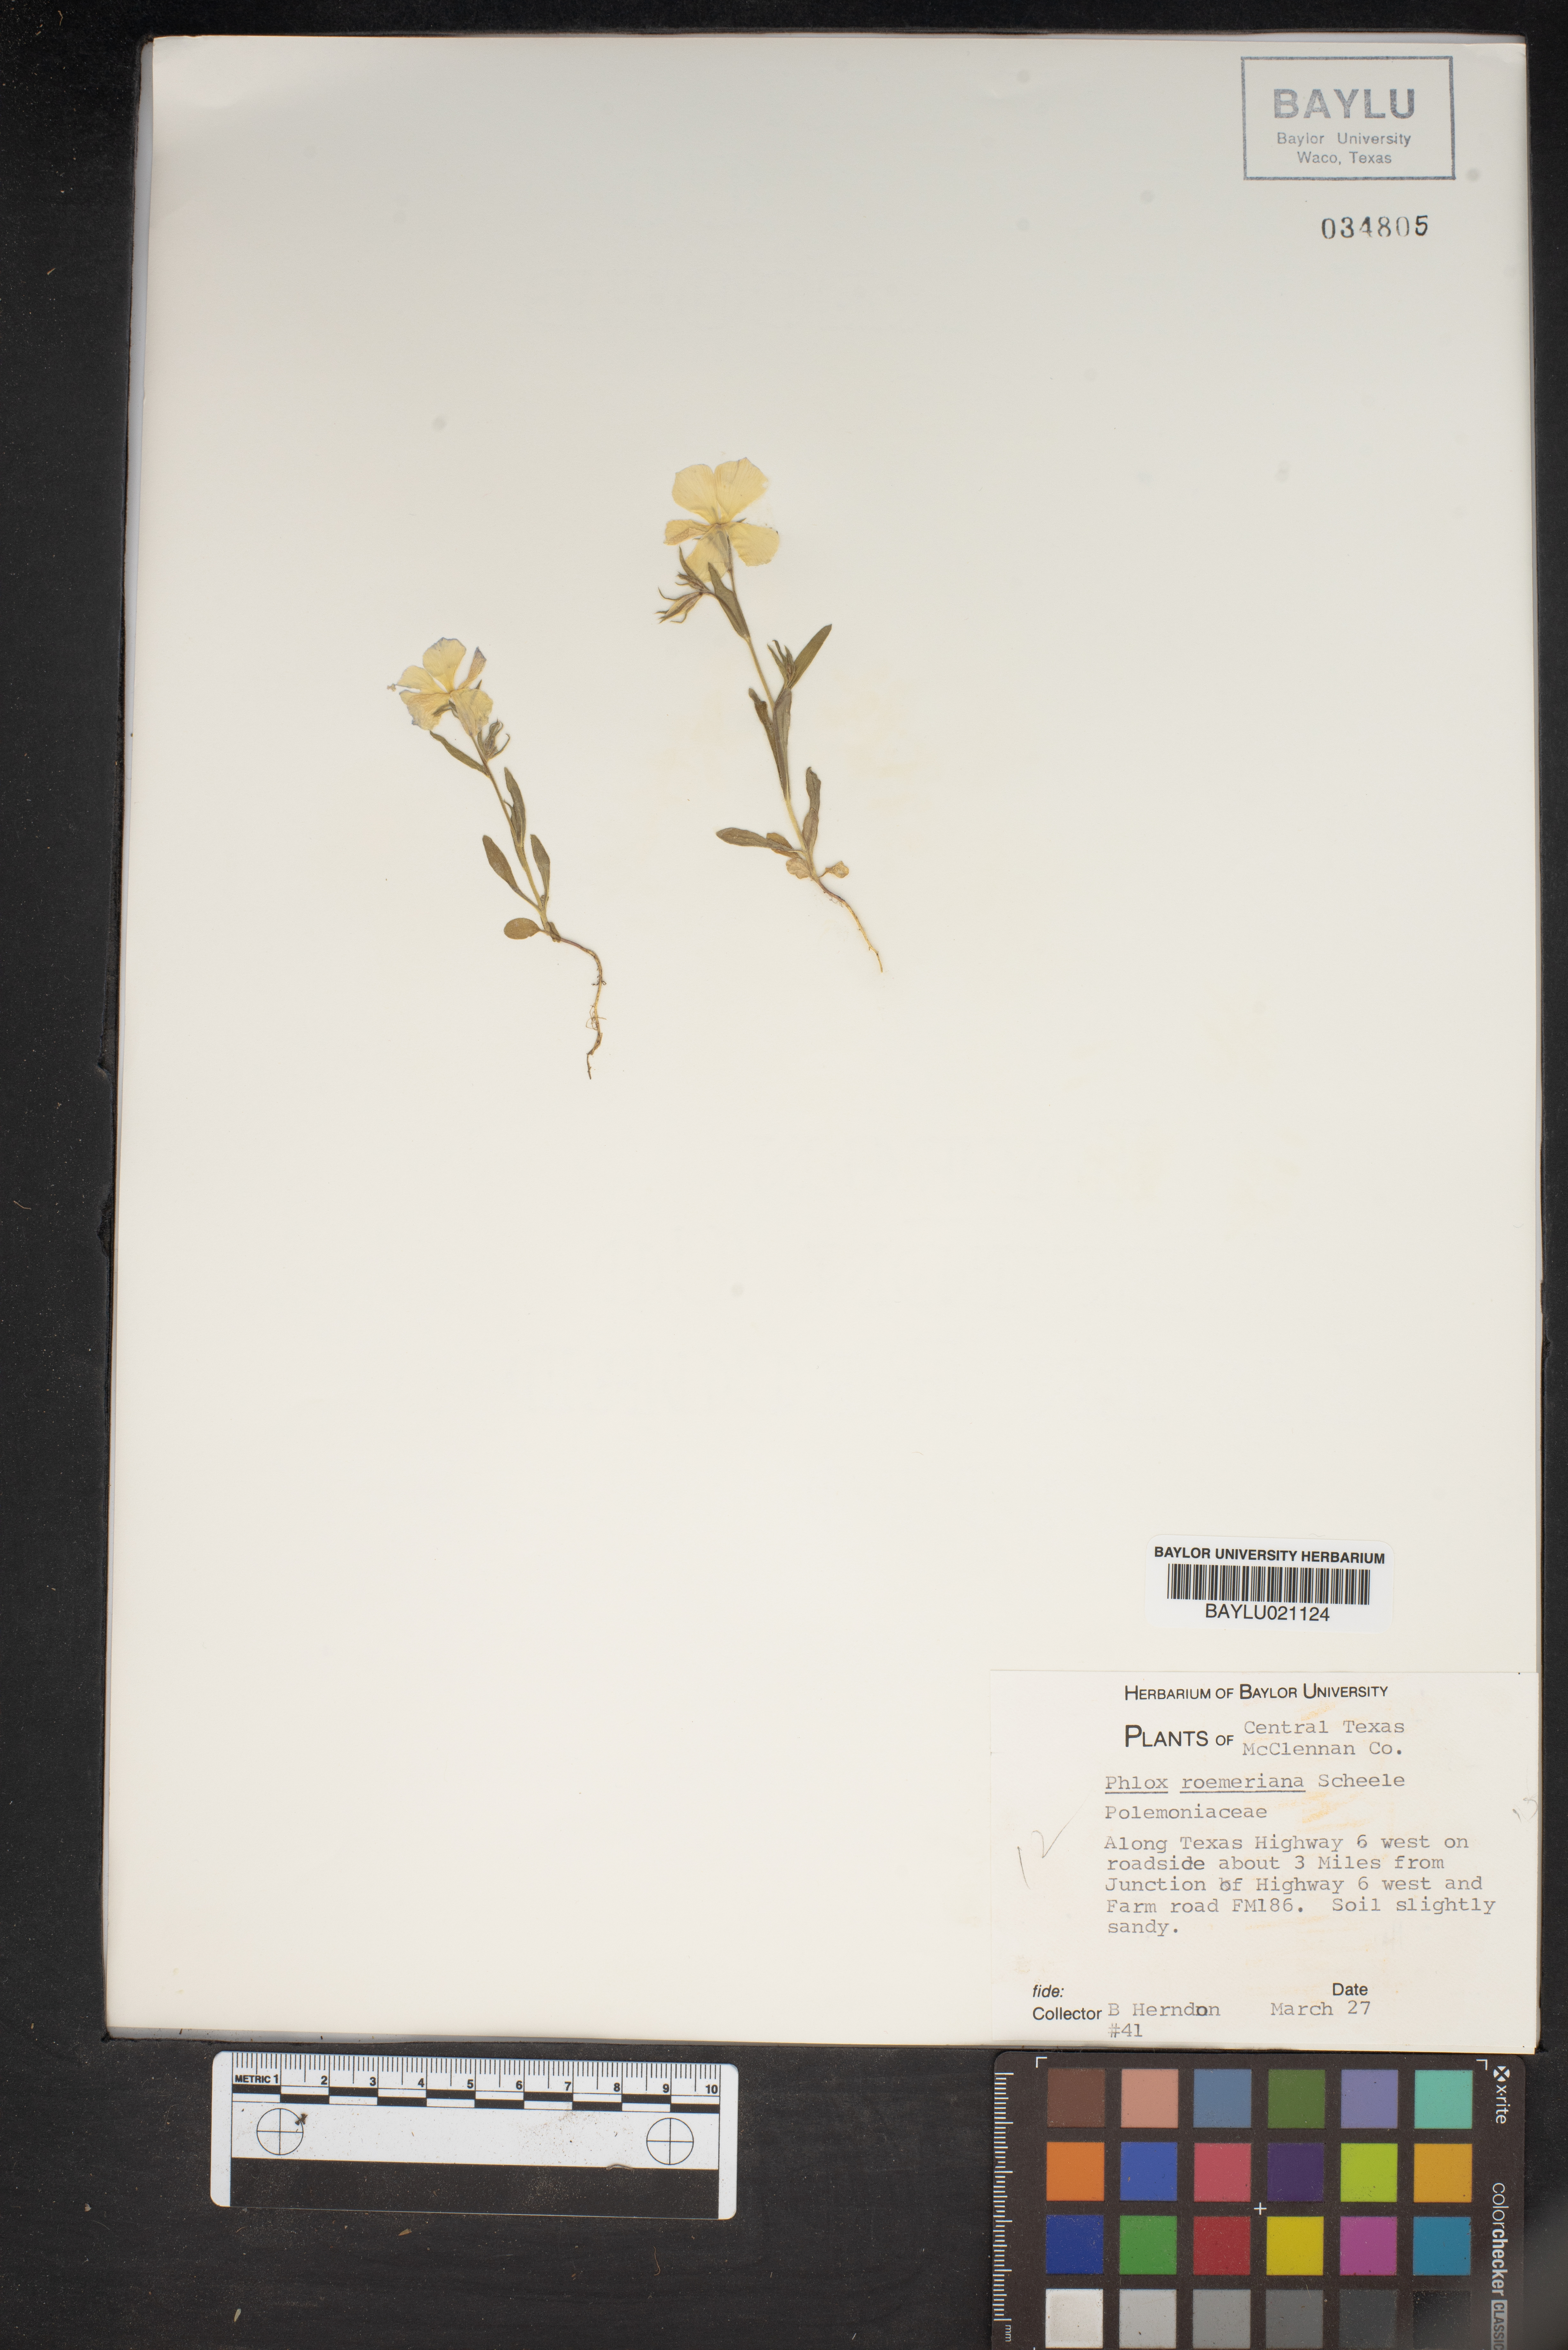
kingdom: Plantae
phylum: Tracheophyta
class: Magnoliopsida
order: Ericales
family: Polemoniaceae
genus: Phlox
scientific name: Phlox roemeriana
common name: Roemer's phlox
